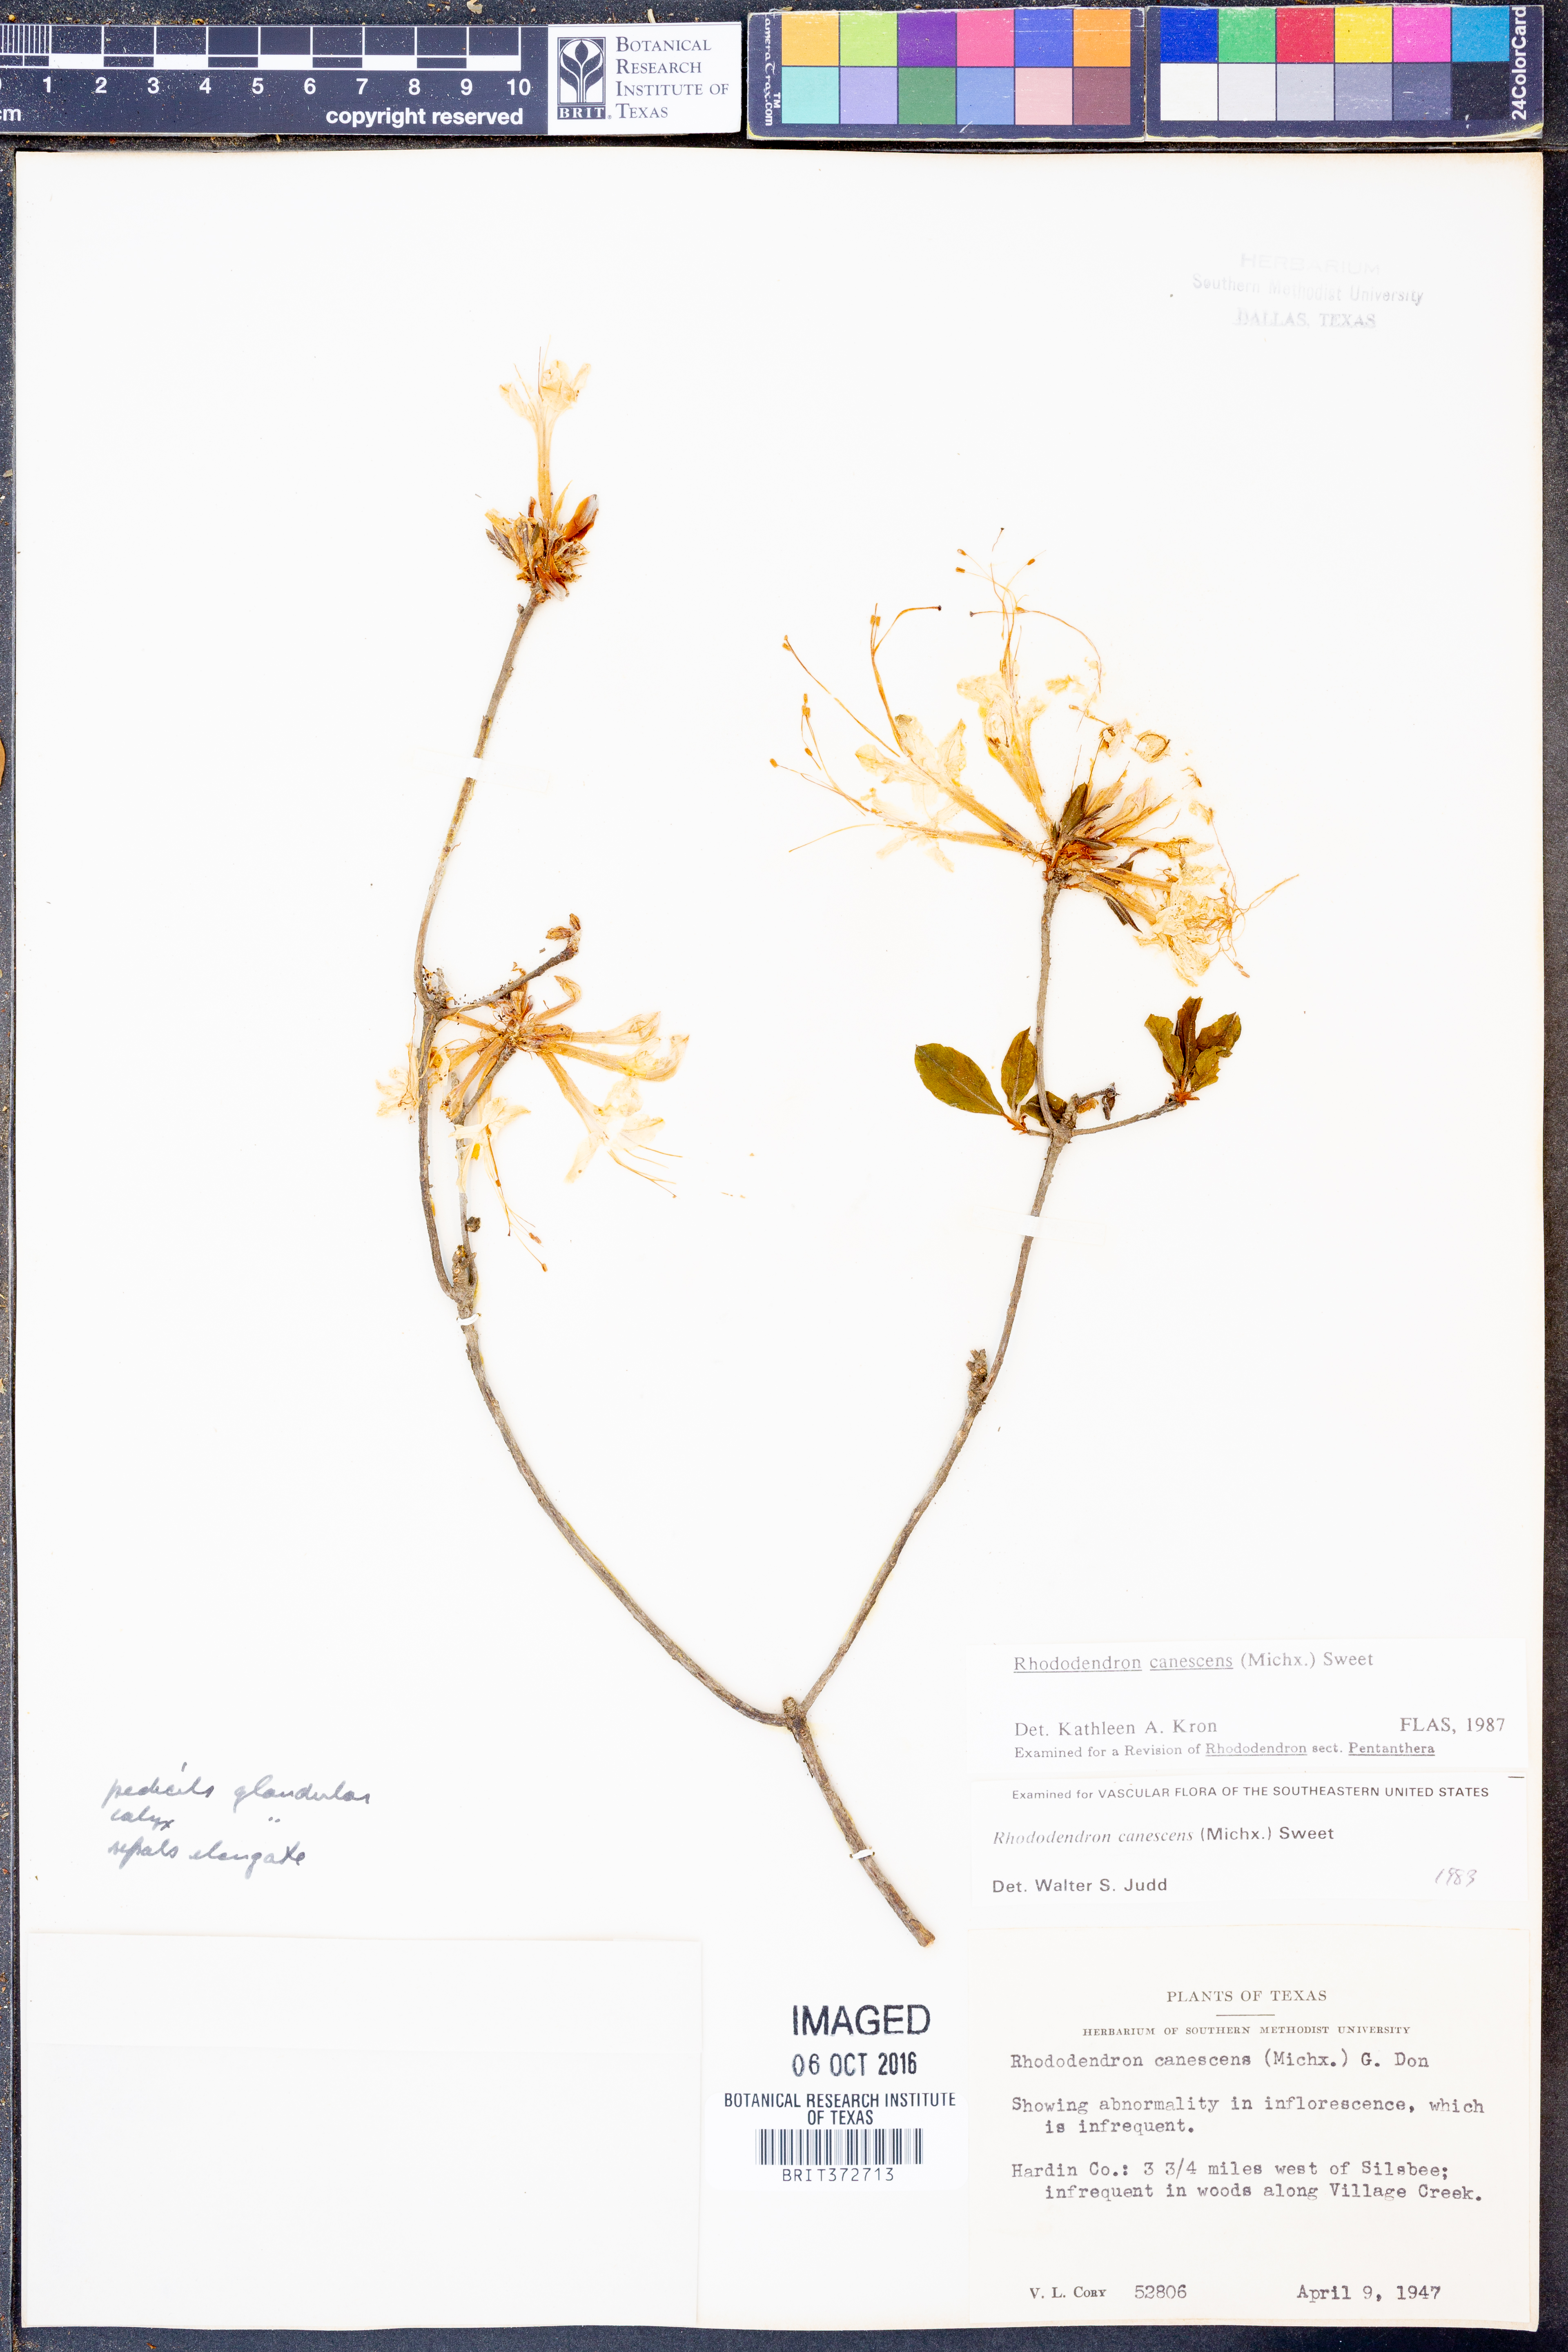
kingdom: Plantae
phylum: Tracheophyta
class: Magnoliopsida
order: Ericales
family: Ericaceae
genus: Rhododendron
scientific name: Rhododendron canescens
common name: Mountain azalea
